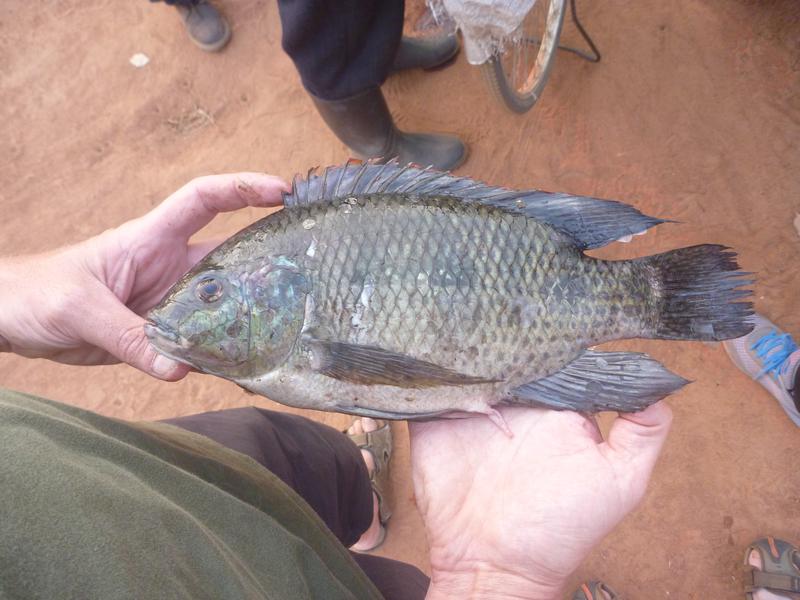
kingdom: Animalia
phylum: Chordata
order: Perciformes
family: Cichlidae
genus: Oreochromis
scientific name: Oreochromis upembae
